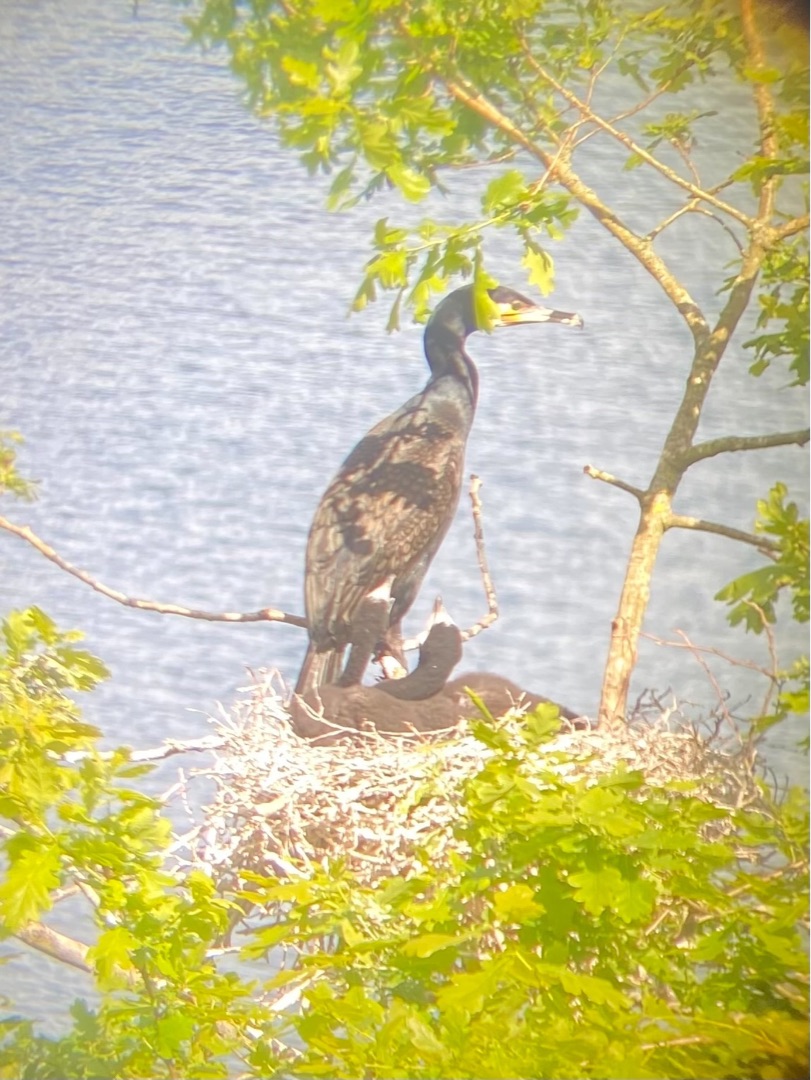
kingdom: Animalia
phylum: Chordata
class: Aves
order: Suliformes
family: Phalacrocoracidae
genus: Phalacrocorax
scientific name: Phalacrocorax carbo
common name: Skarv
